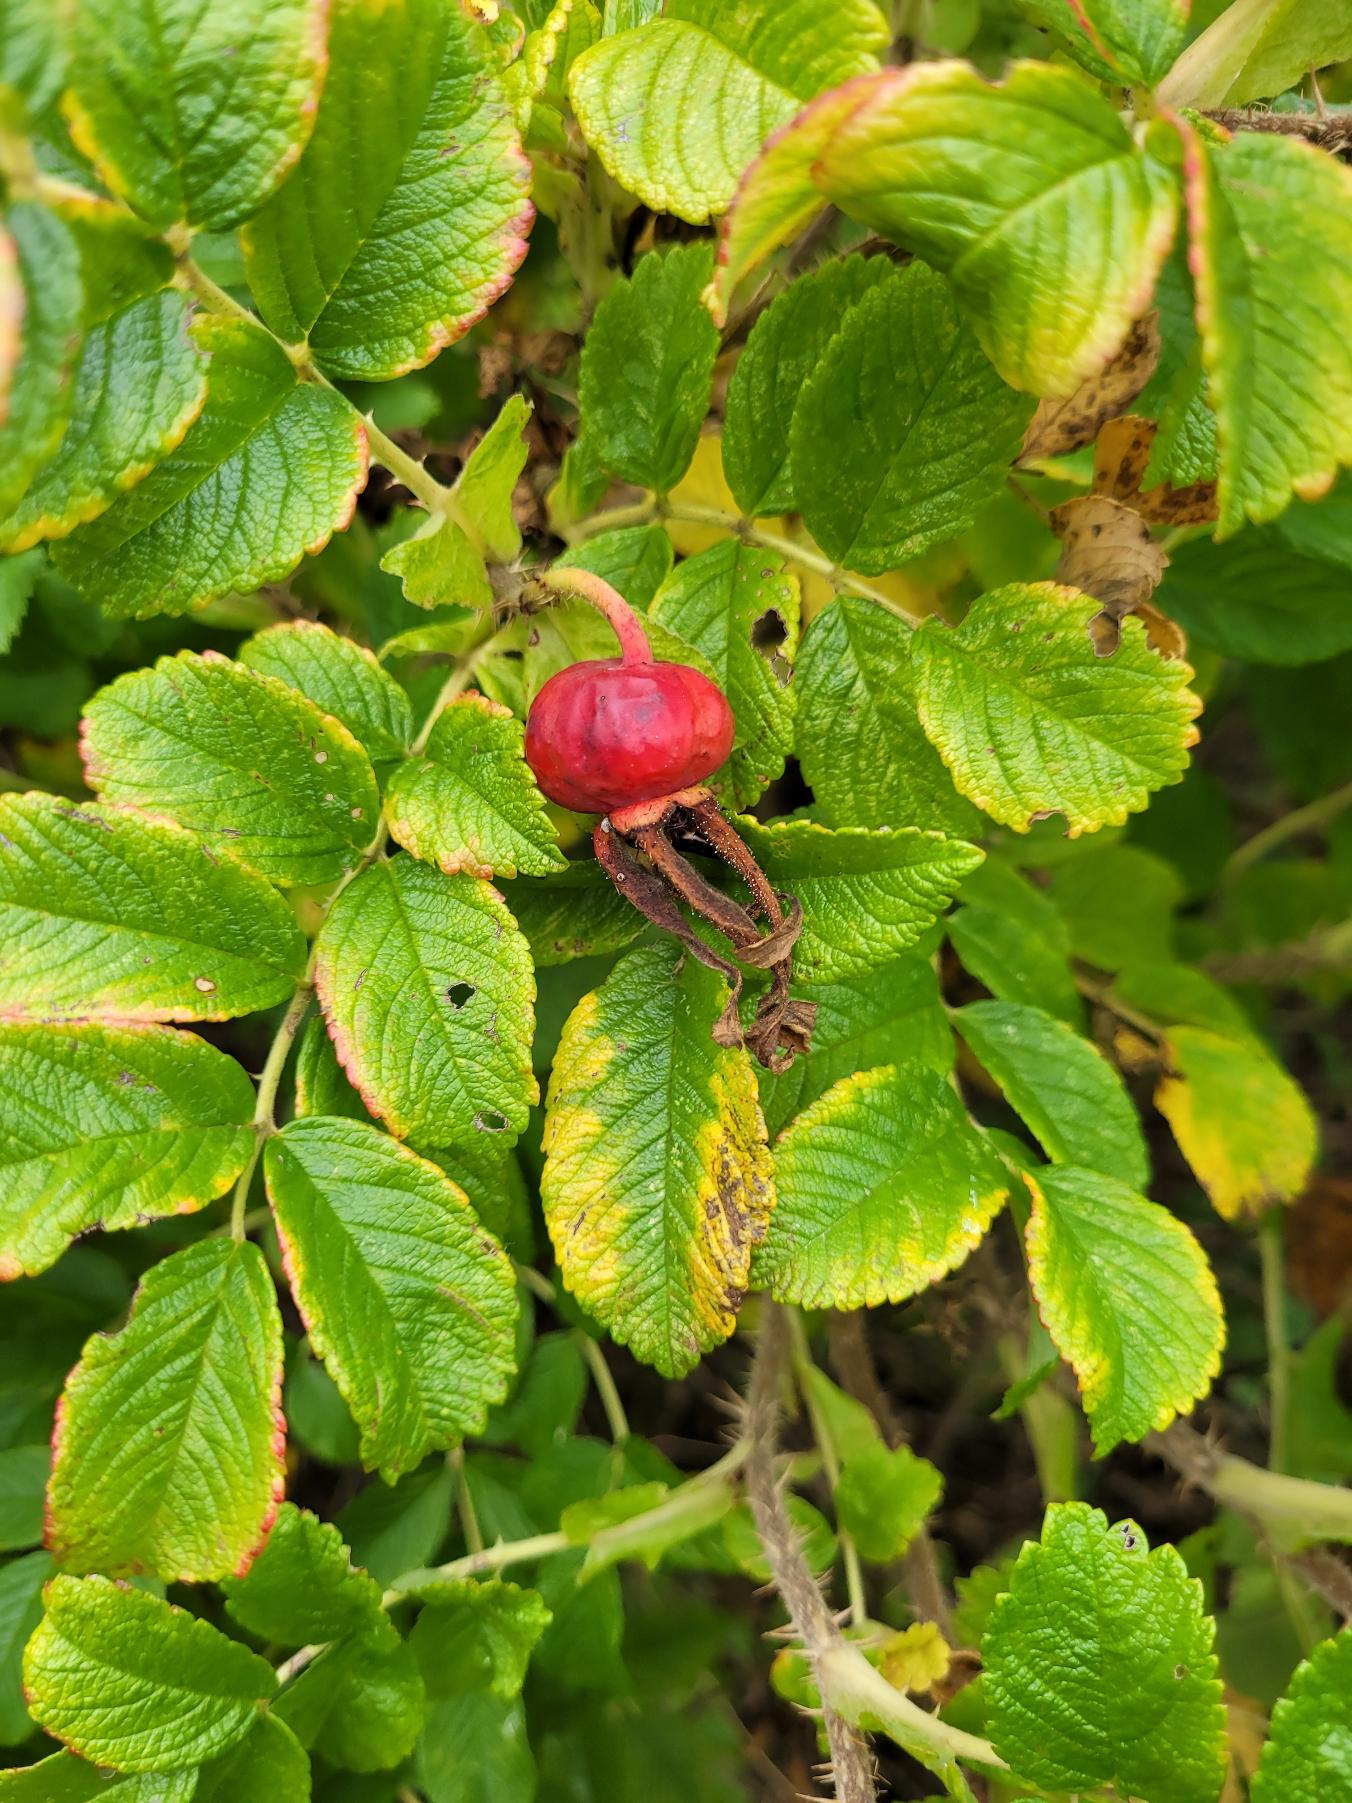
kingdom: Plantae
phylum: Tracheophyta
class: Magnoliopsida
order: Rosales
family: Rosaceae
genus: Rosa
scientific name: Rosa rugosa
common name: Rynket rose
